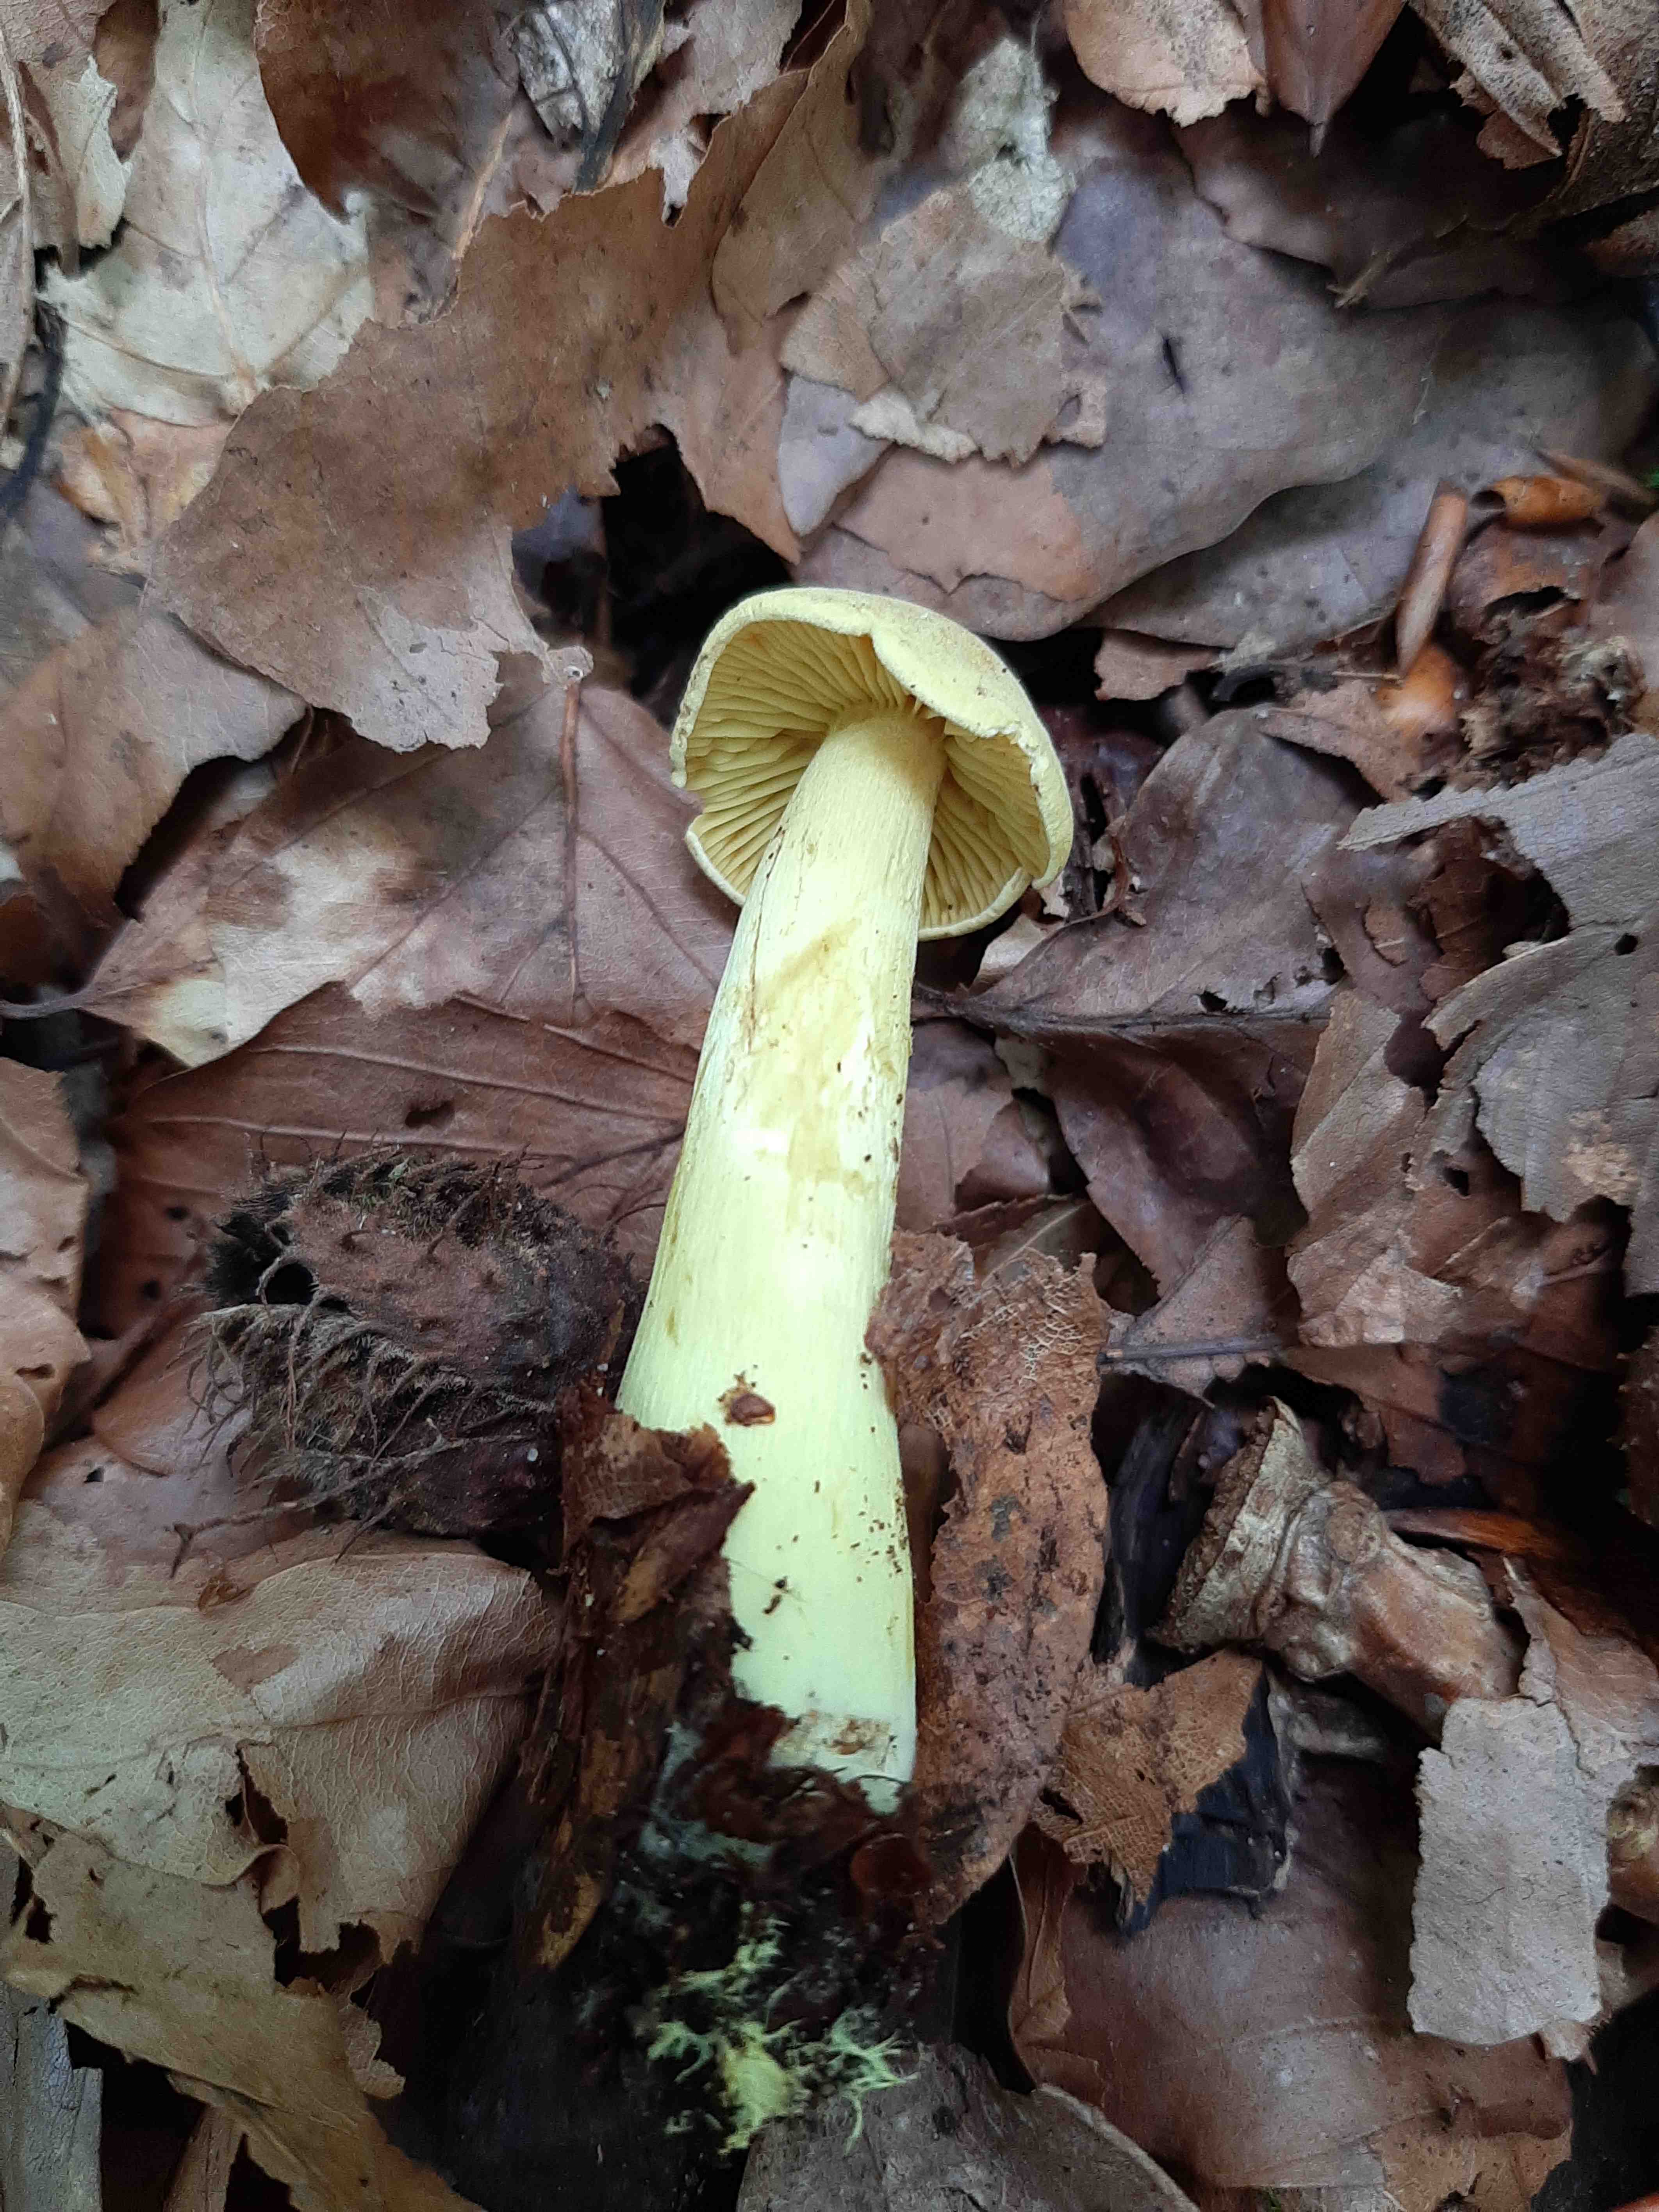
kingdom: Fungi
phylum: Basidiomycota
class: Agaricomycetes
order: Agaricales
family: Tricholomataceae
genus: Tricholoma
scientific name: Tricholoma sulphureum
